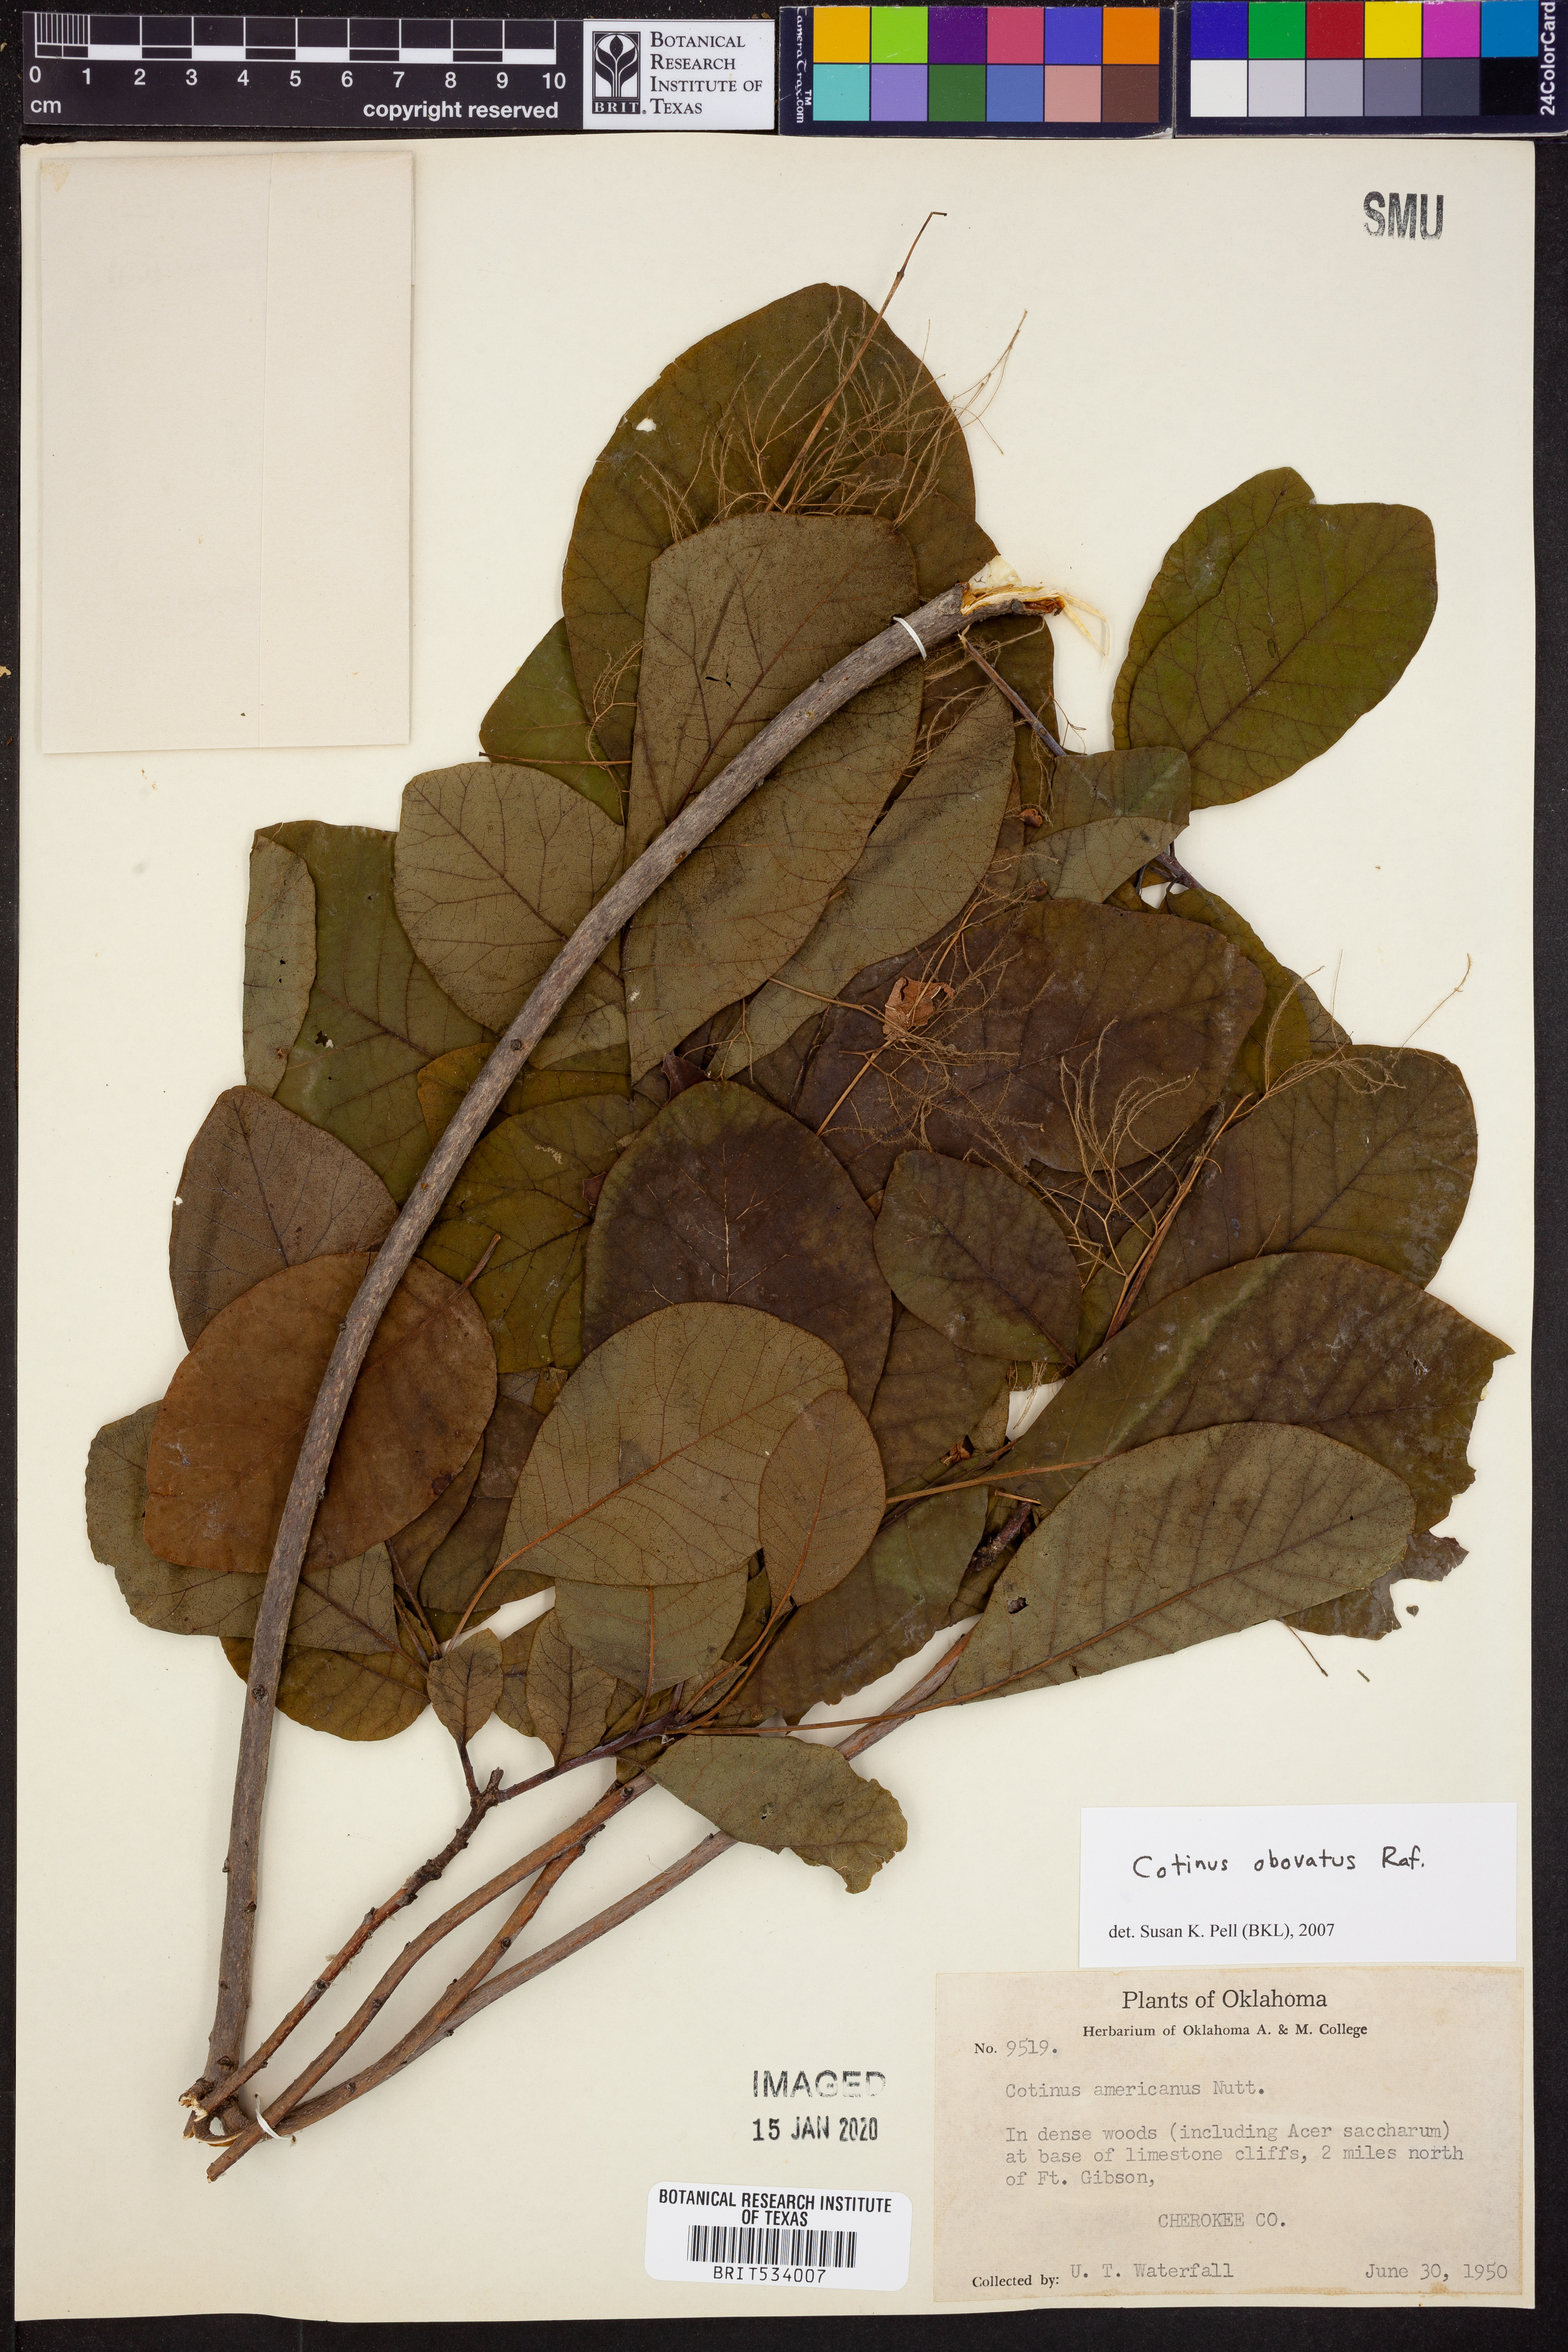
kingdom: Plantae
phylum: Tracheophyta
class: Magnoliopsida
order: Sapindales
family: Anacardiaceae
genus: Cotinus
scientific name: Cotinus obovatus
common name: Chittamwood
